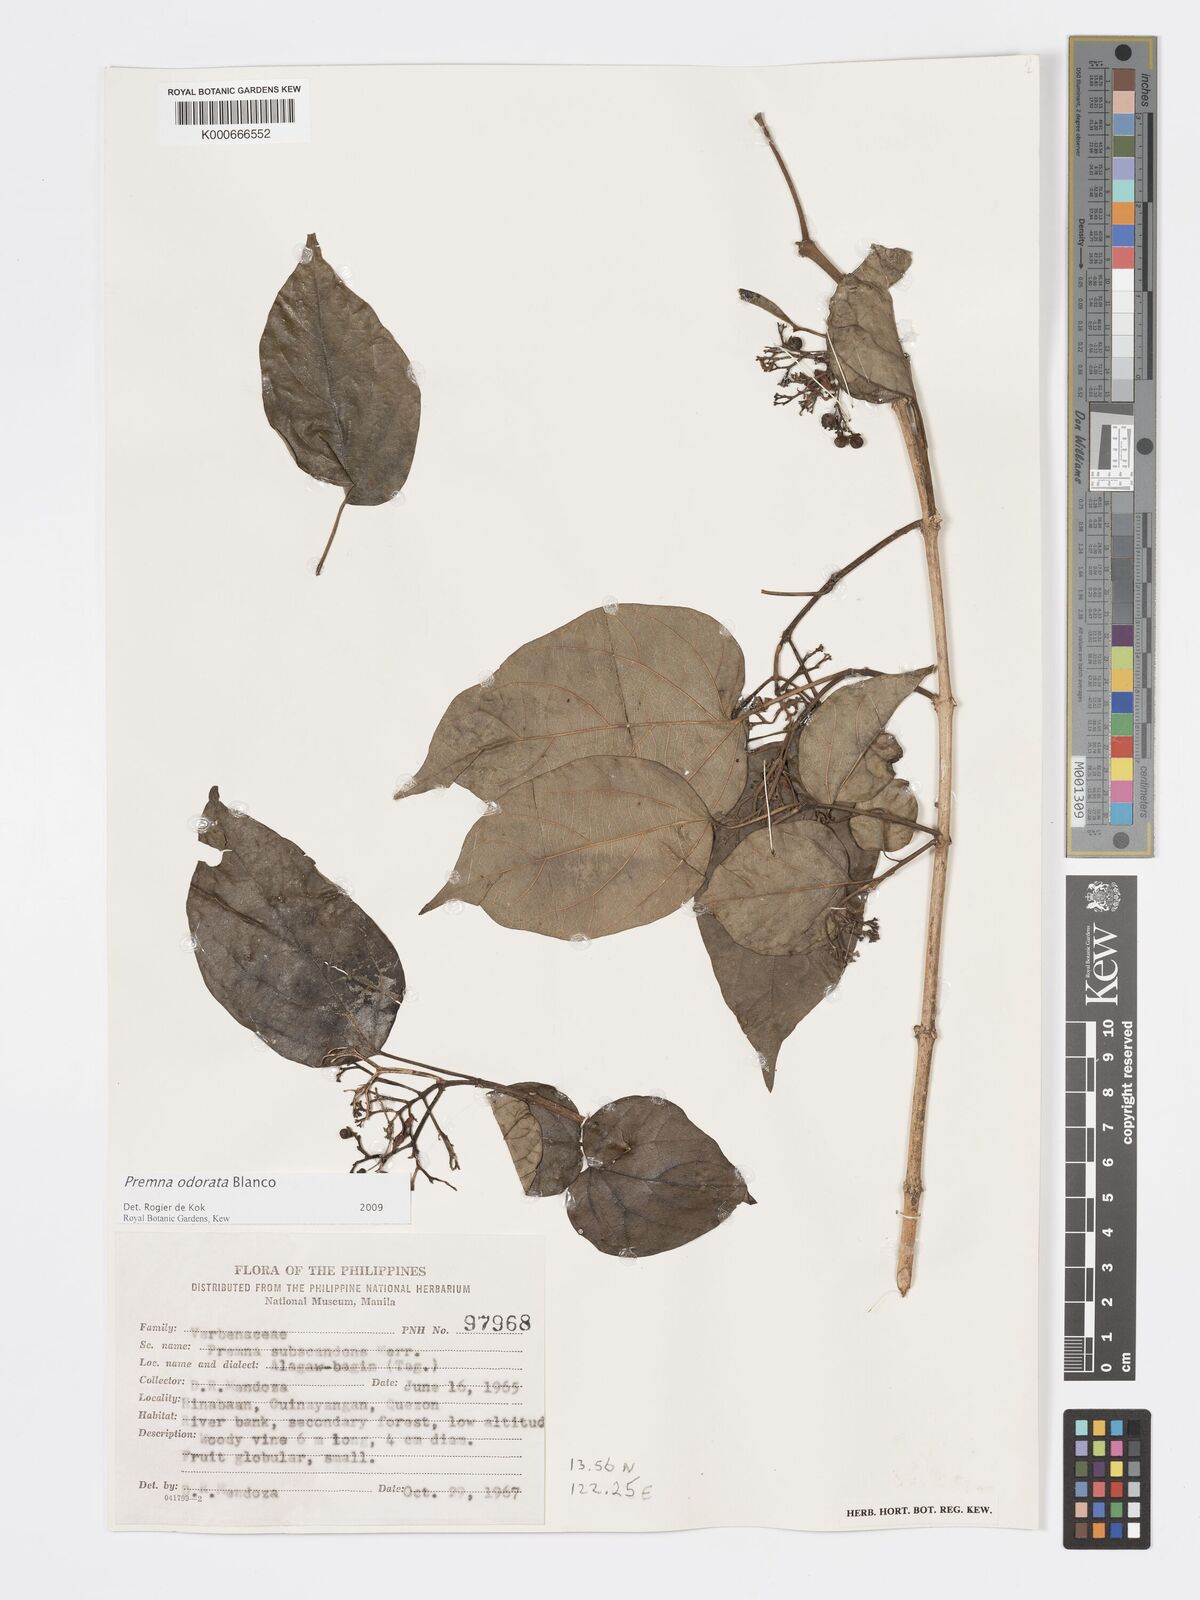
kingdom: Plantae
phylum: Tracheophyta
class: Magnoliopsida
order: Lamiales
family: Lamiaceae
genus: Premna
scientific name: Premna odorata
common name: Fragrant premna
